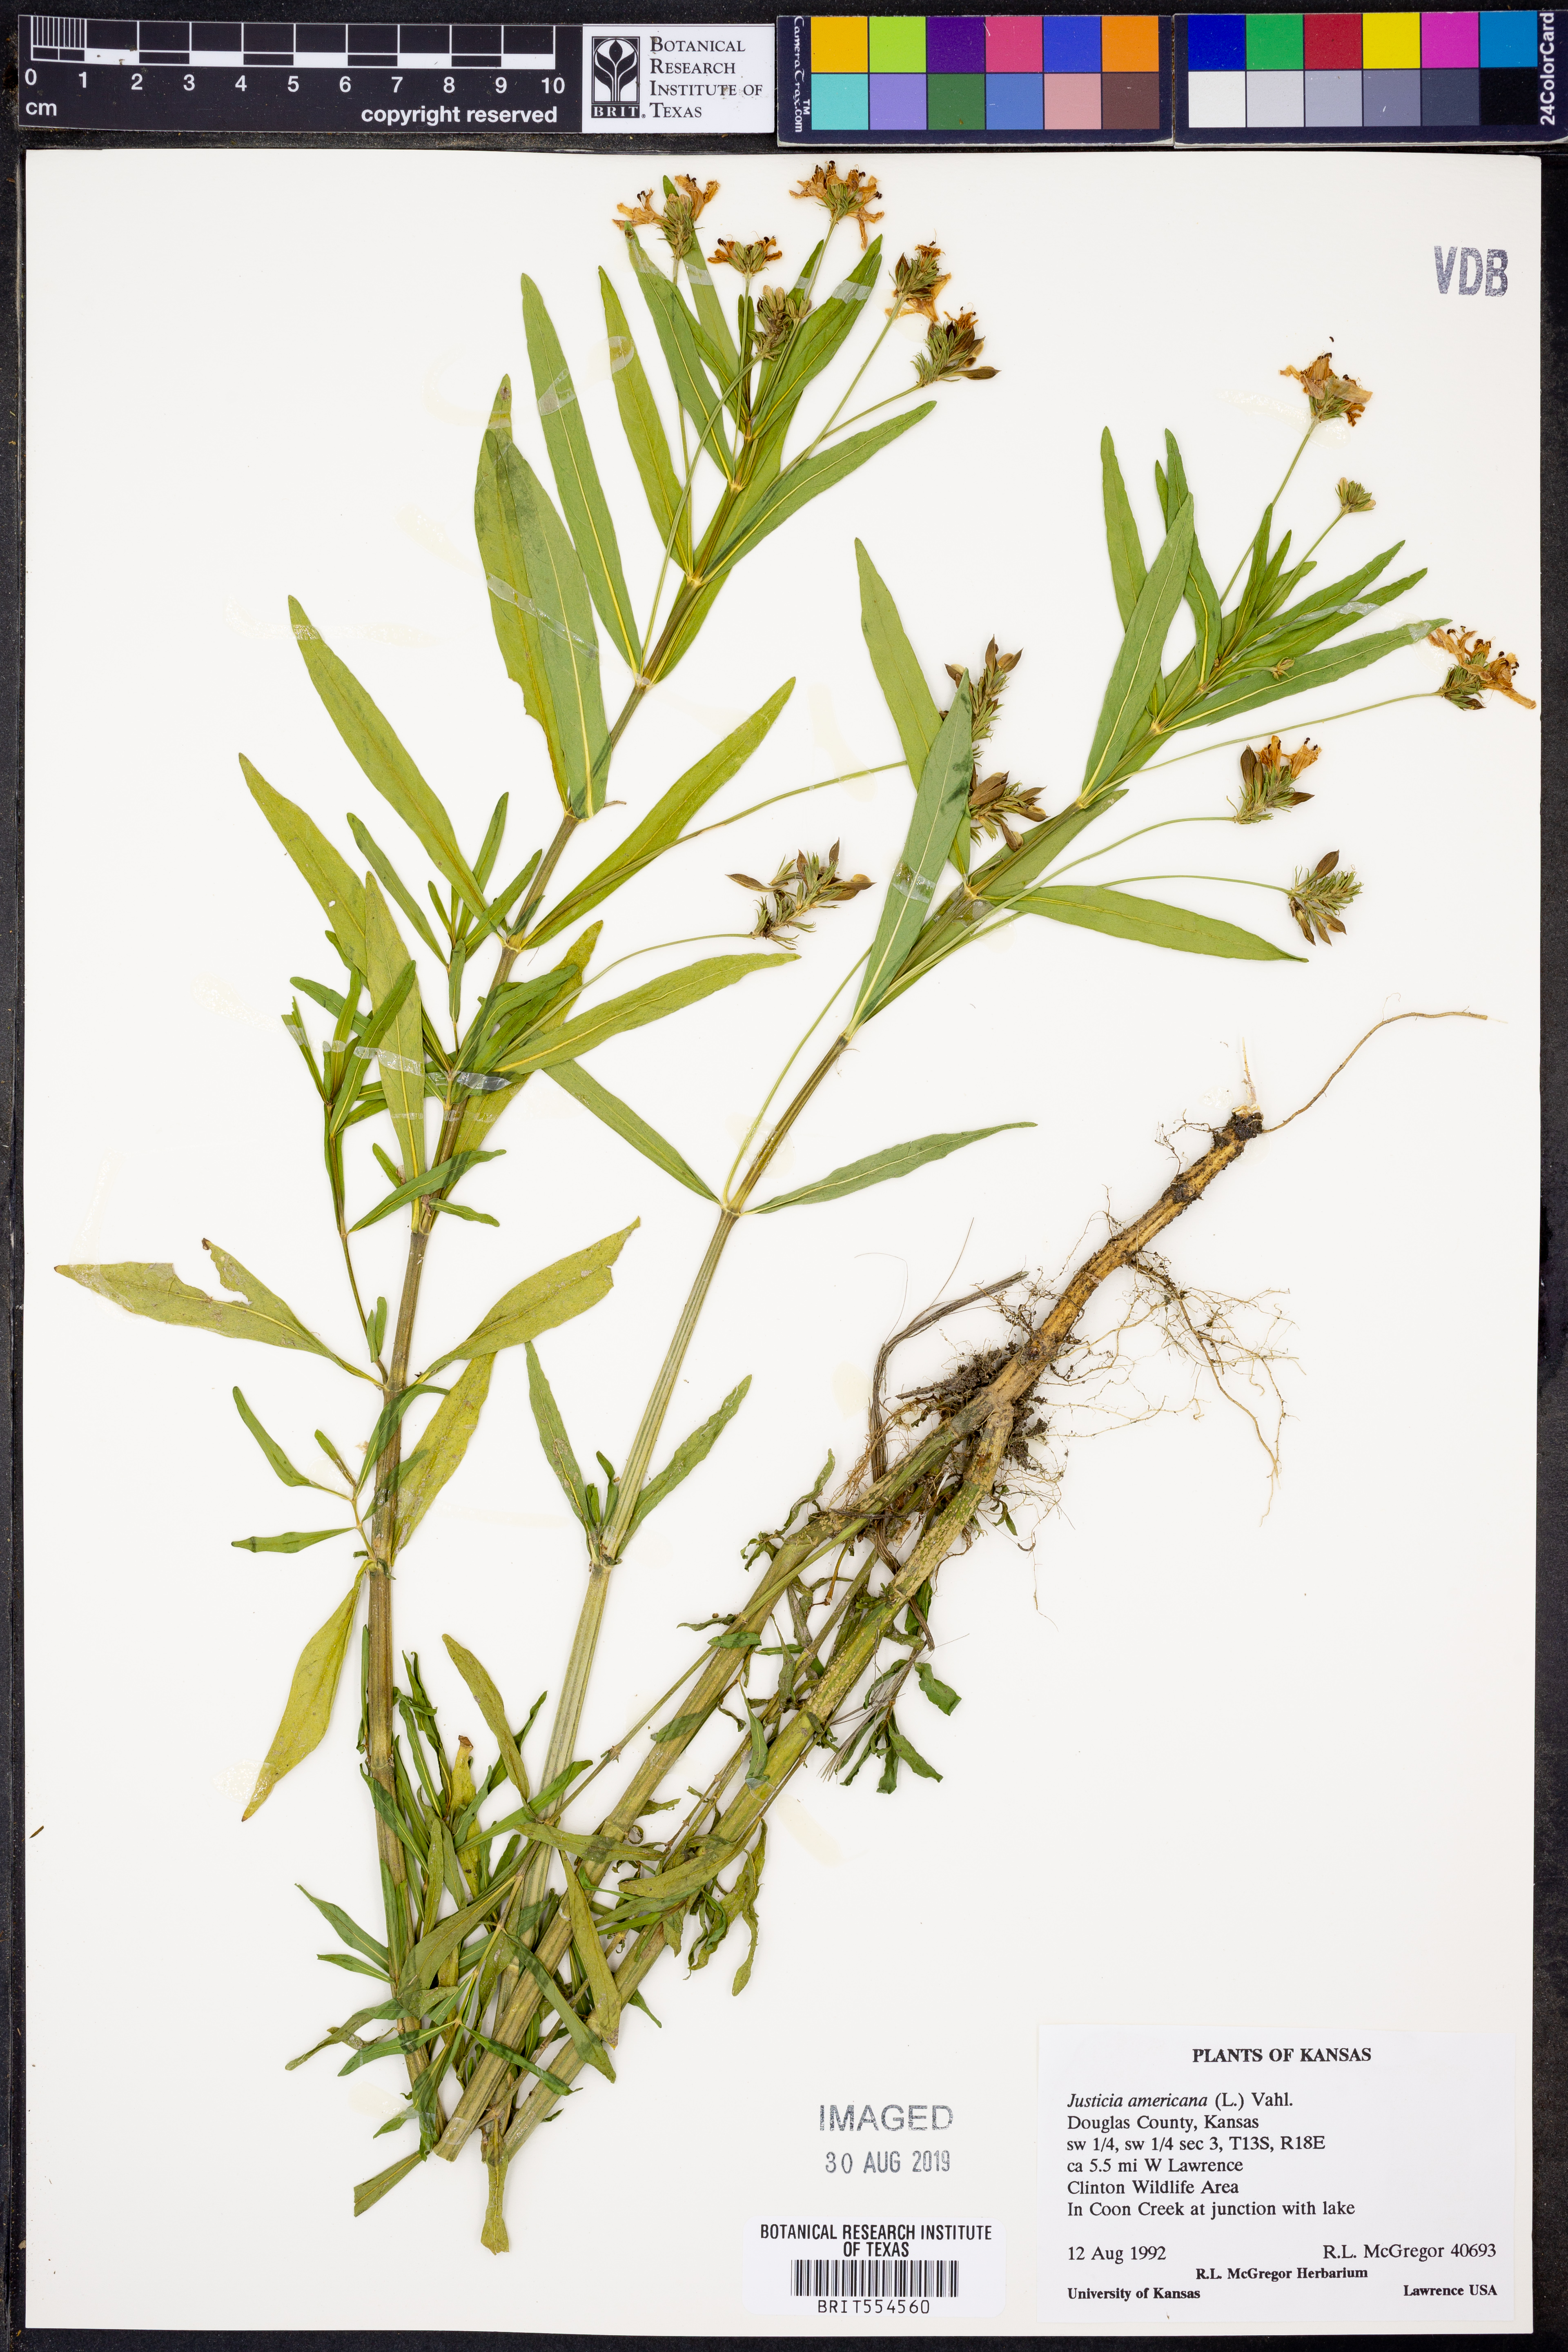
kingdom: Plantae
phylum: Tracheophyta
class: Magnoliopsida
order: Lamiales
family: Acanthaceae
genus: Dianthera
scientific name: Dianthera americana
